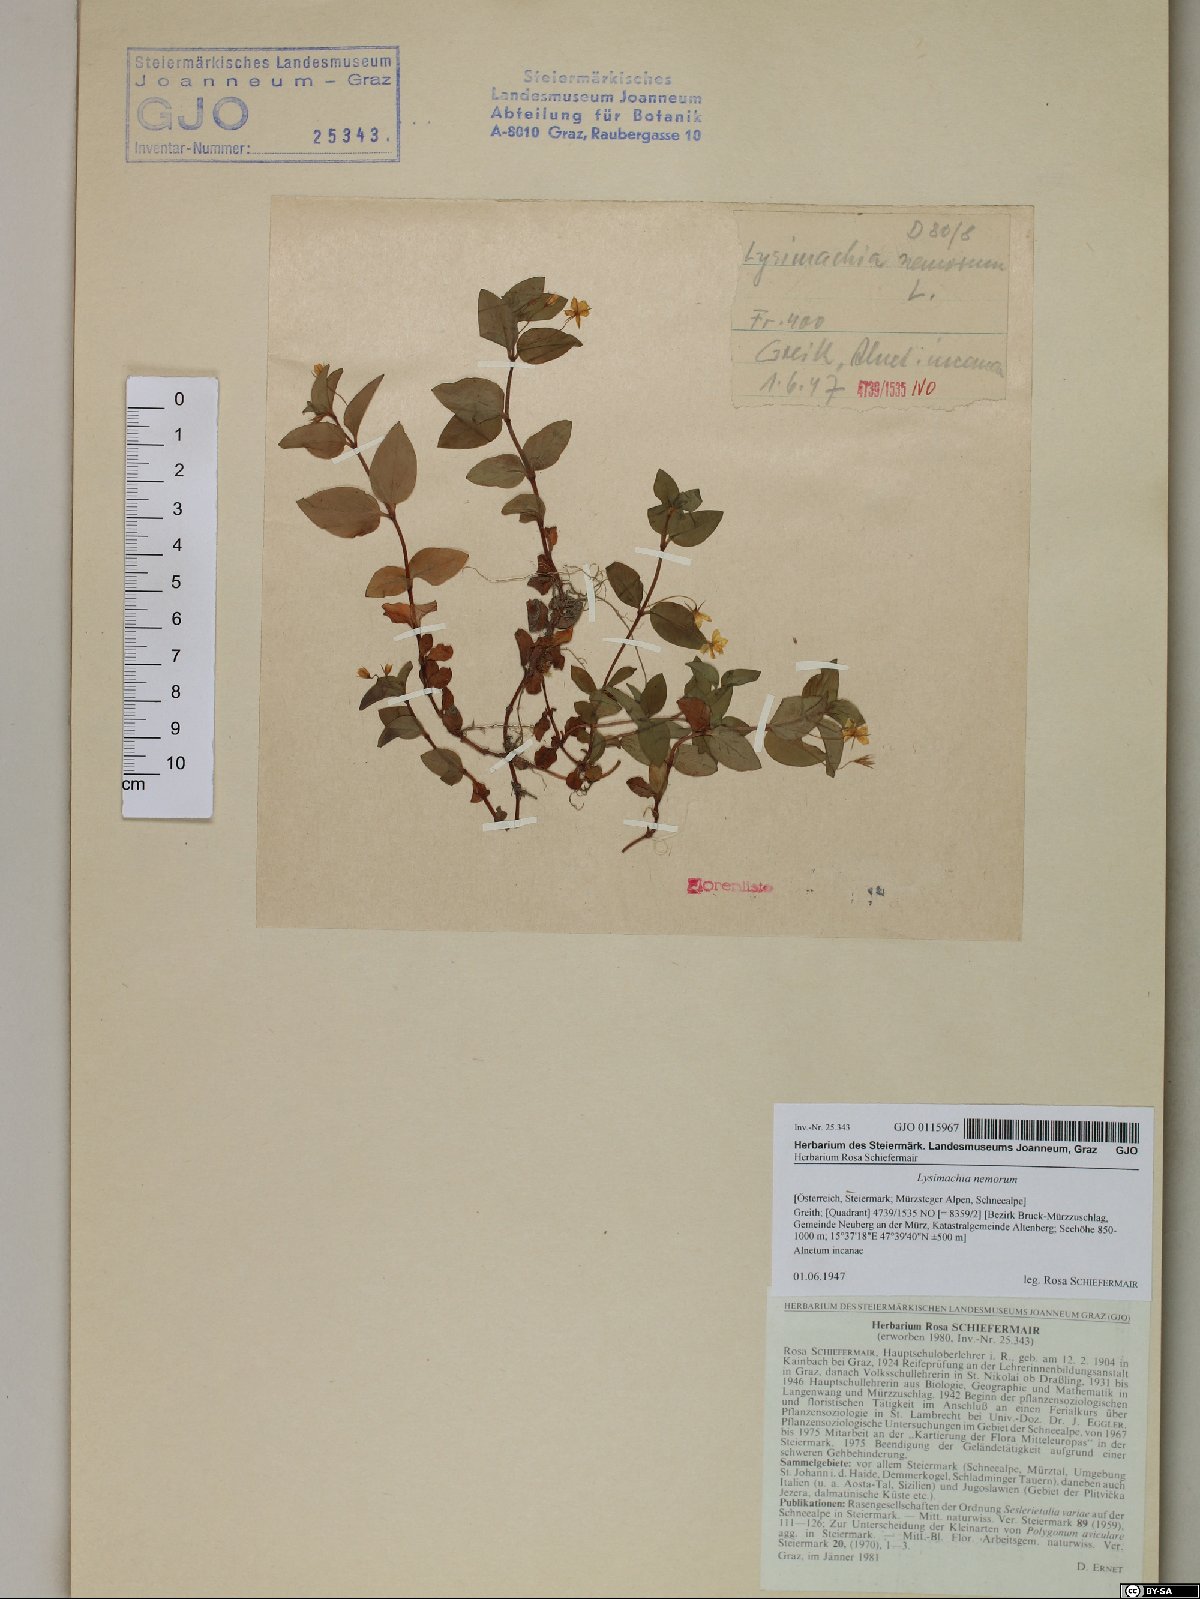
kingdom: Plantae
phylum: Tracheophyta
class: Magnoliopsida
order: Ericales
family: Primulaceae
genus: Lysimachia
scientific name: Lysimachia nemorum
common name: Yellow pimpernel
